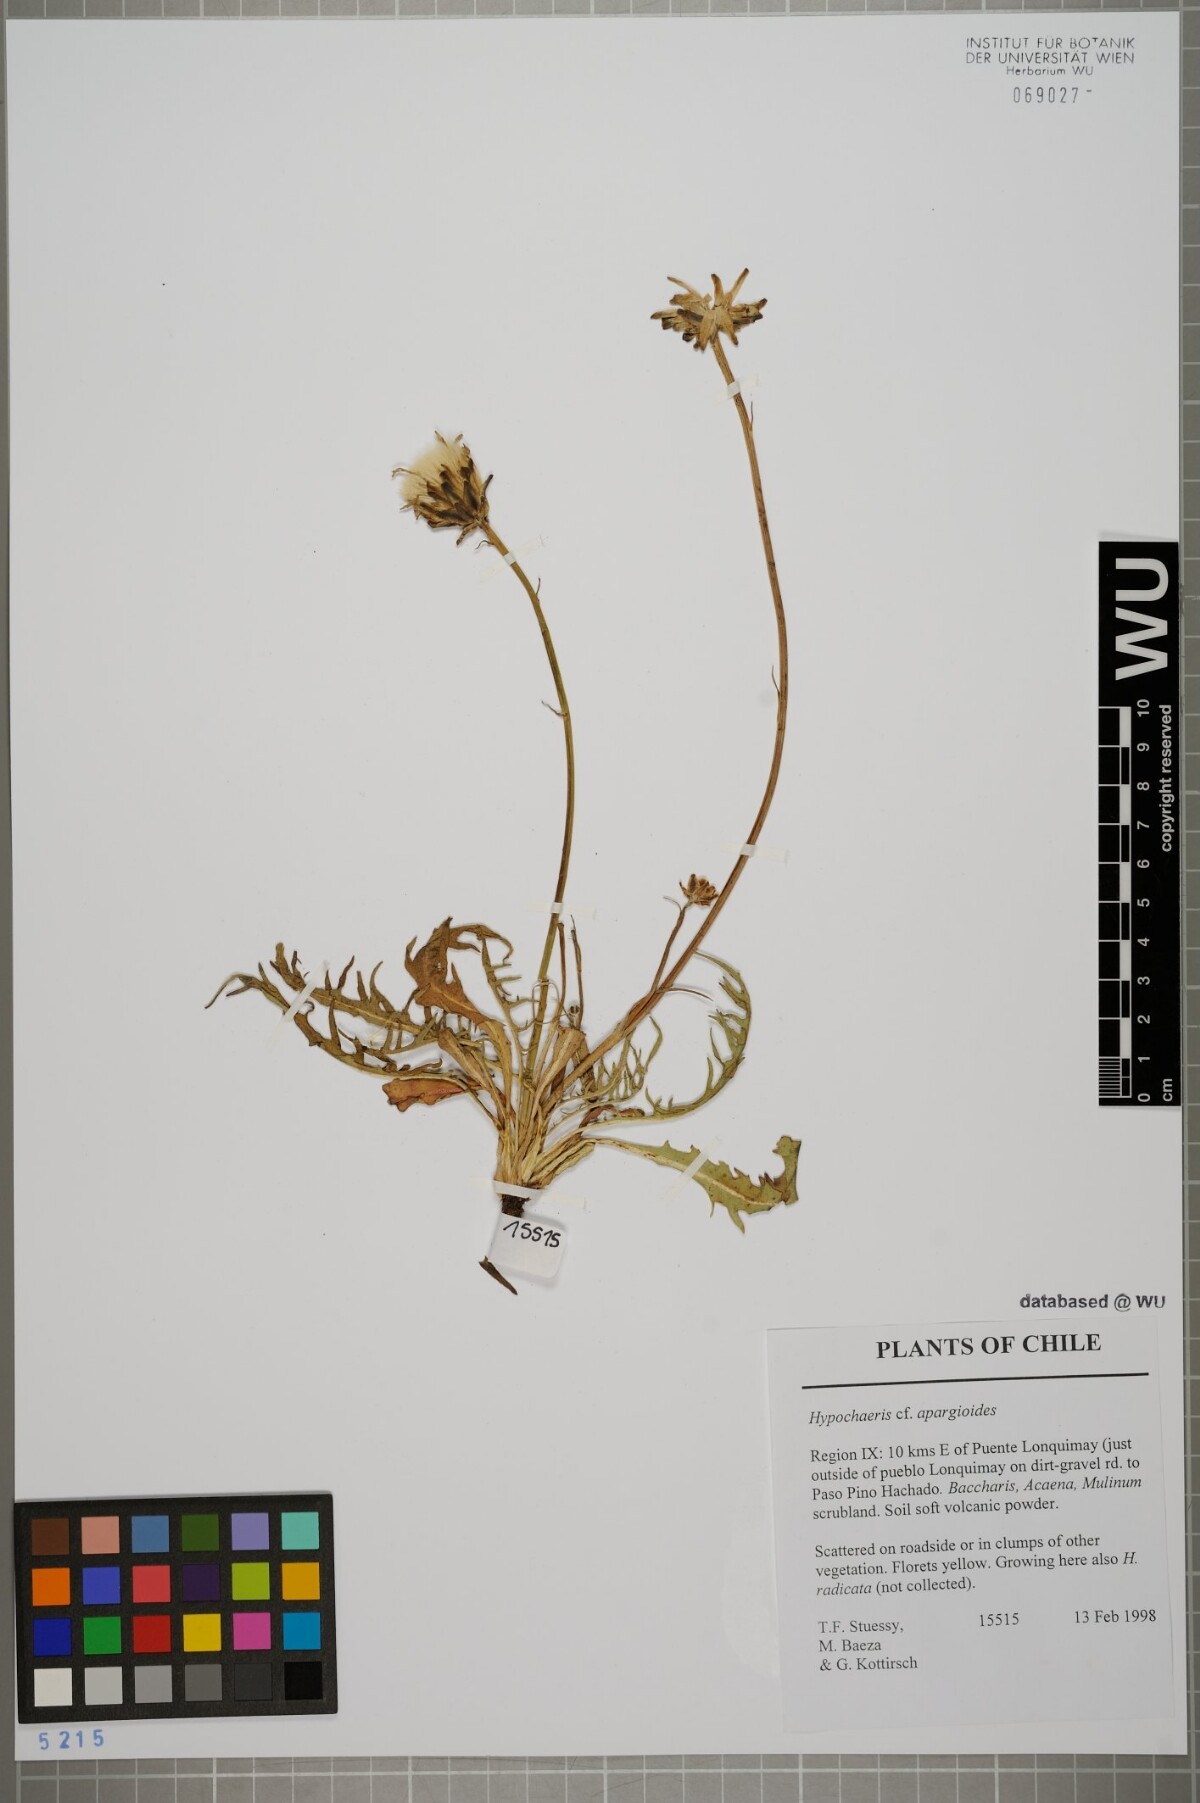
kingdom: Plantae
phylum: Tracheophyta
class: Magnoliopsida
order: Asterales
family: Asteraceae
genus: Hypochaeris
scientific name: Hypochaeris apargioides
